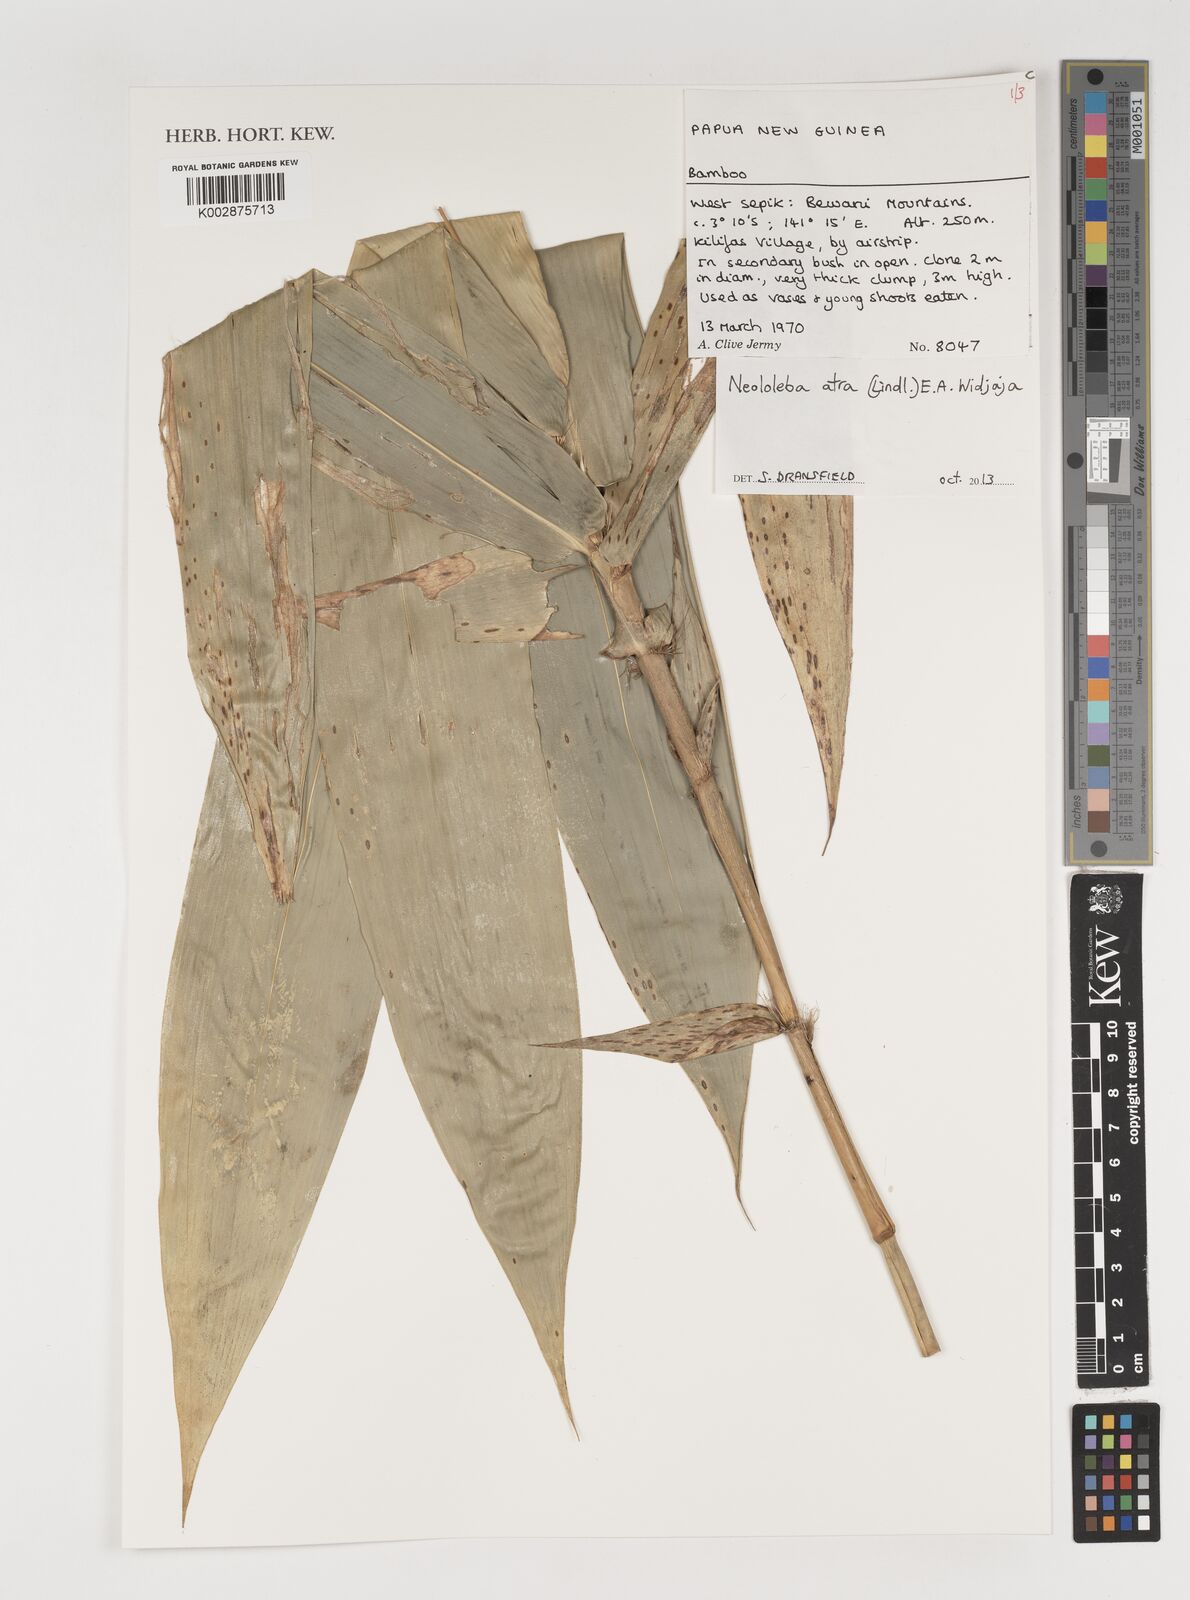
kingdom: Plantae
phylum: Tracheophyta
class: Liliopsida
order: Poales
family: Poaceae
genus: Neololeba
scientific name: Neololeba atra
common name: Cape bamboo
